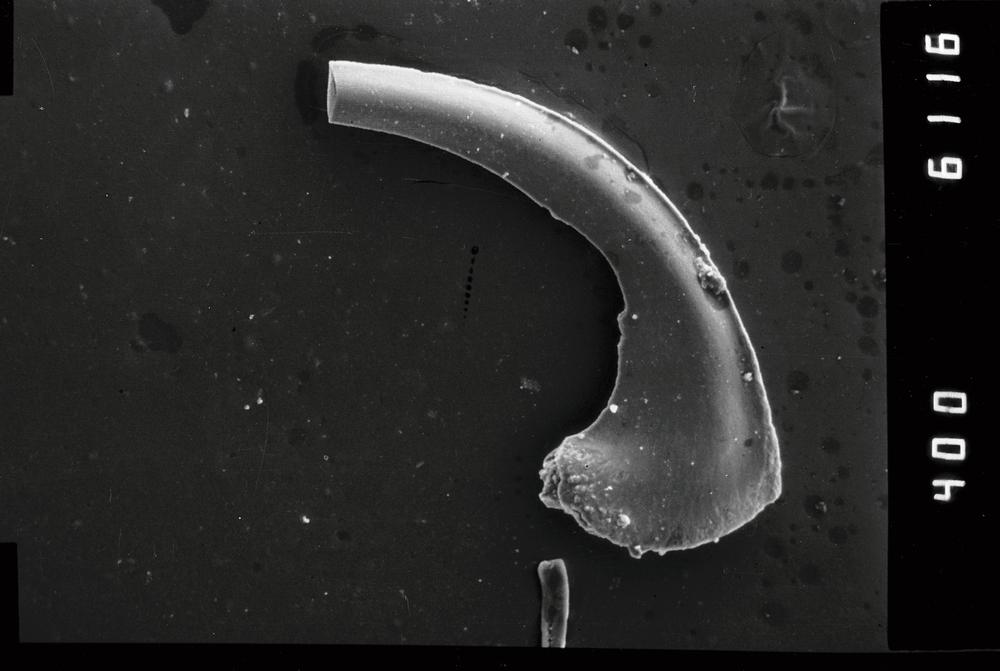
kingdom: Animalia
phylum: Chordata
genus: Paroistodus
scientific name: Paroistodus Drepanodus proteus
